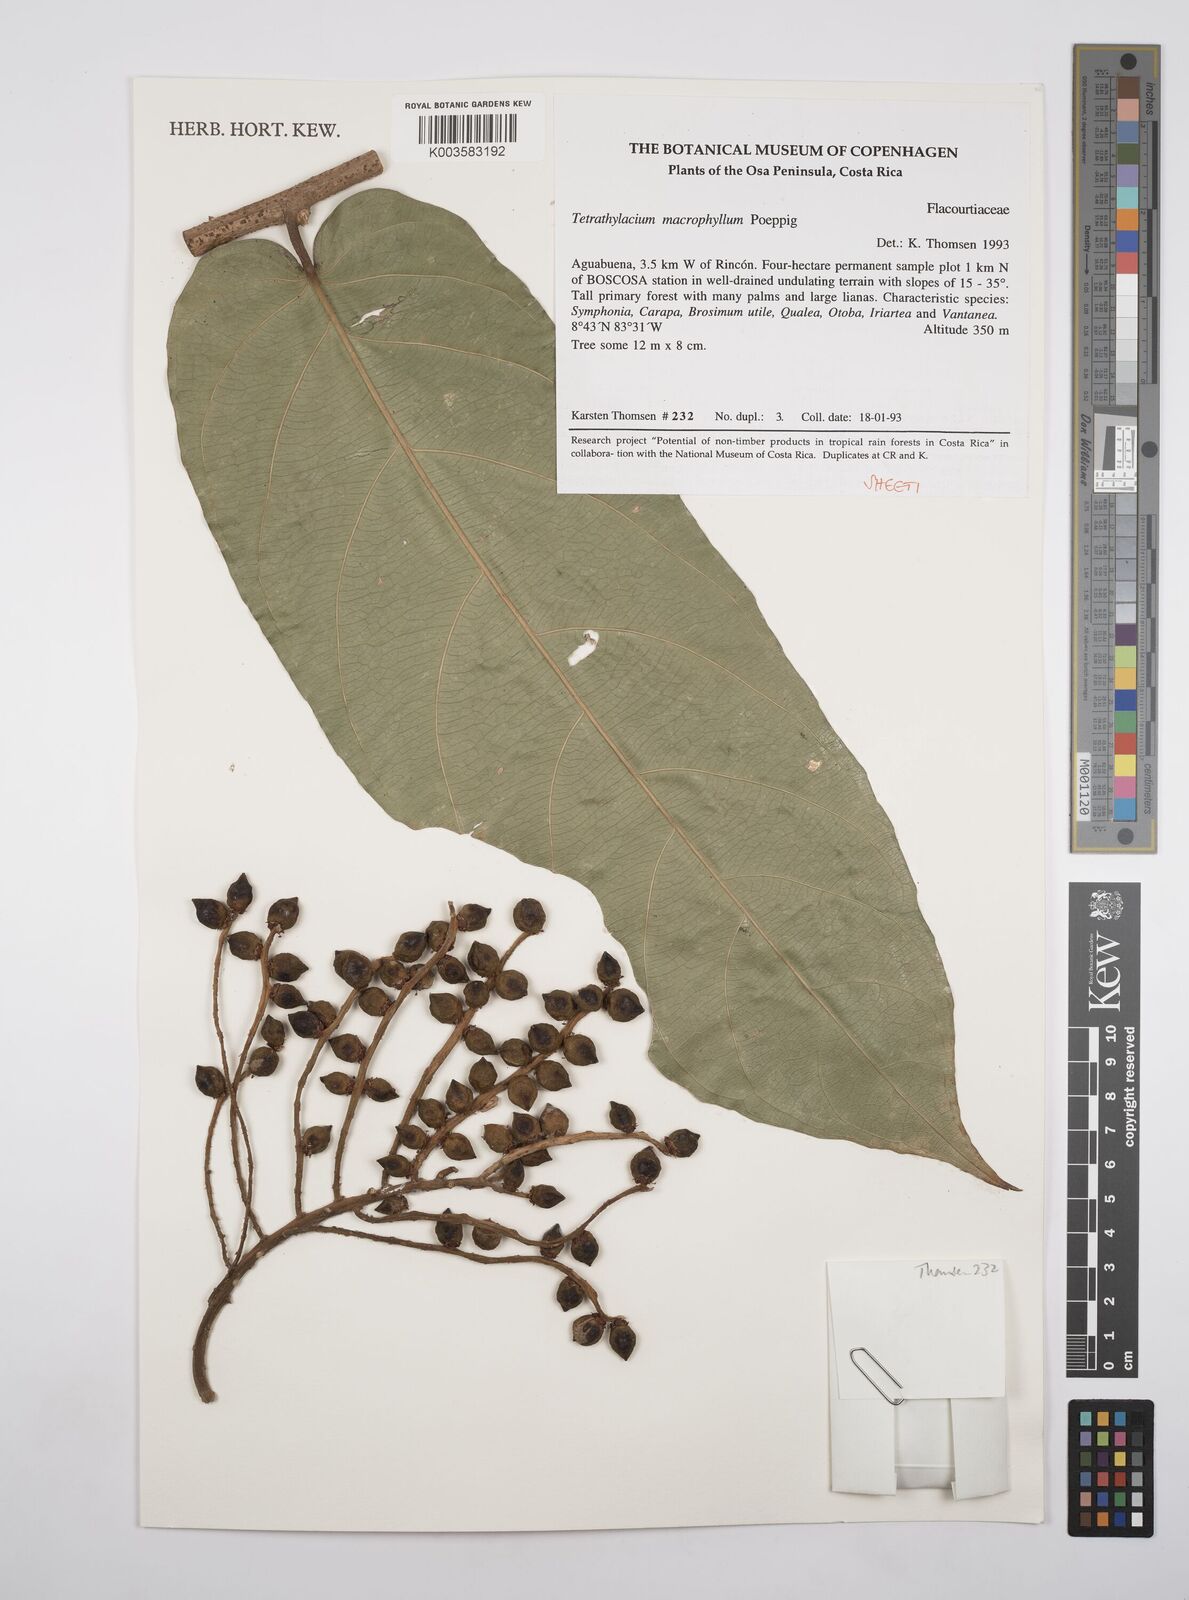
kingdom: Plantae
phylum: Tracheophyta
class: Magnoliopsida
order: Malpighiales
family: Salicaceae
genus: Tetrathylacium
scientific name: Tetrathylacium macrophyllum
